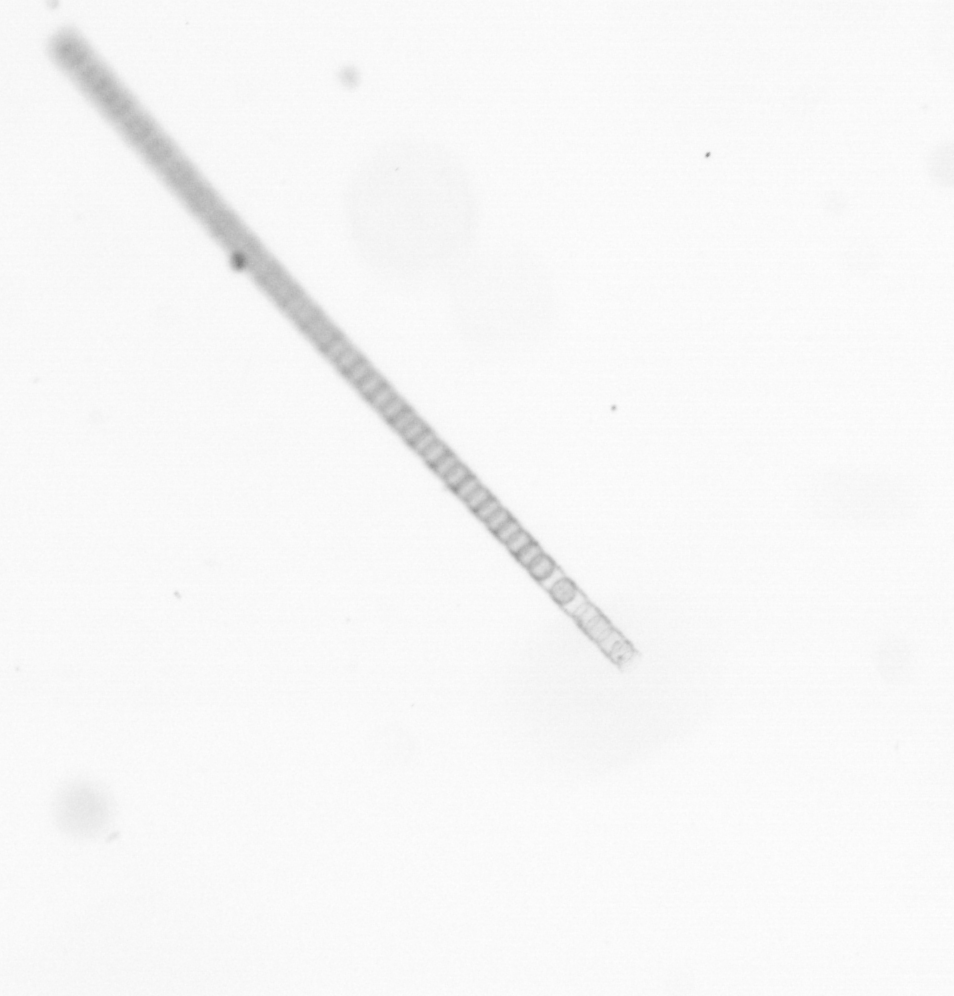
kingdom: Chromista
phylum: Ochrophyta
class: Bacillariophyceae
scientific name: Bacillariophyceae
